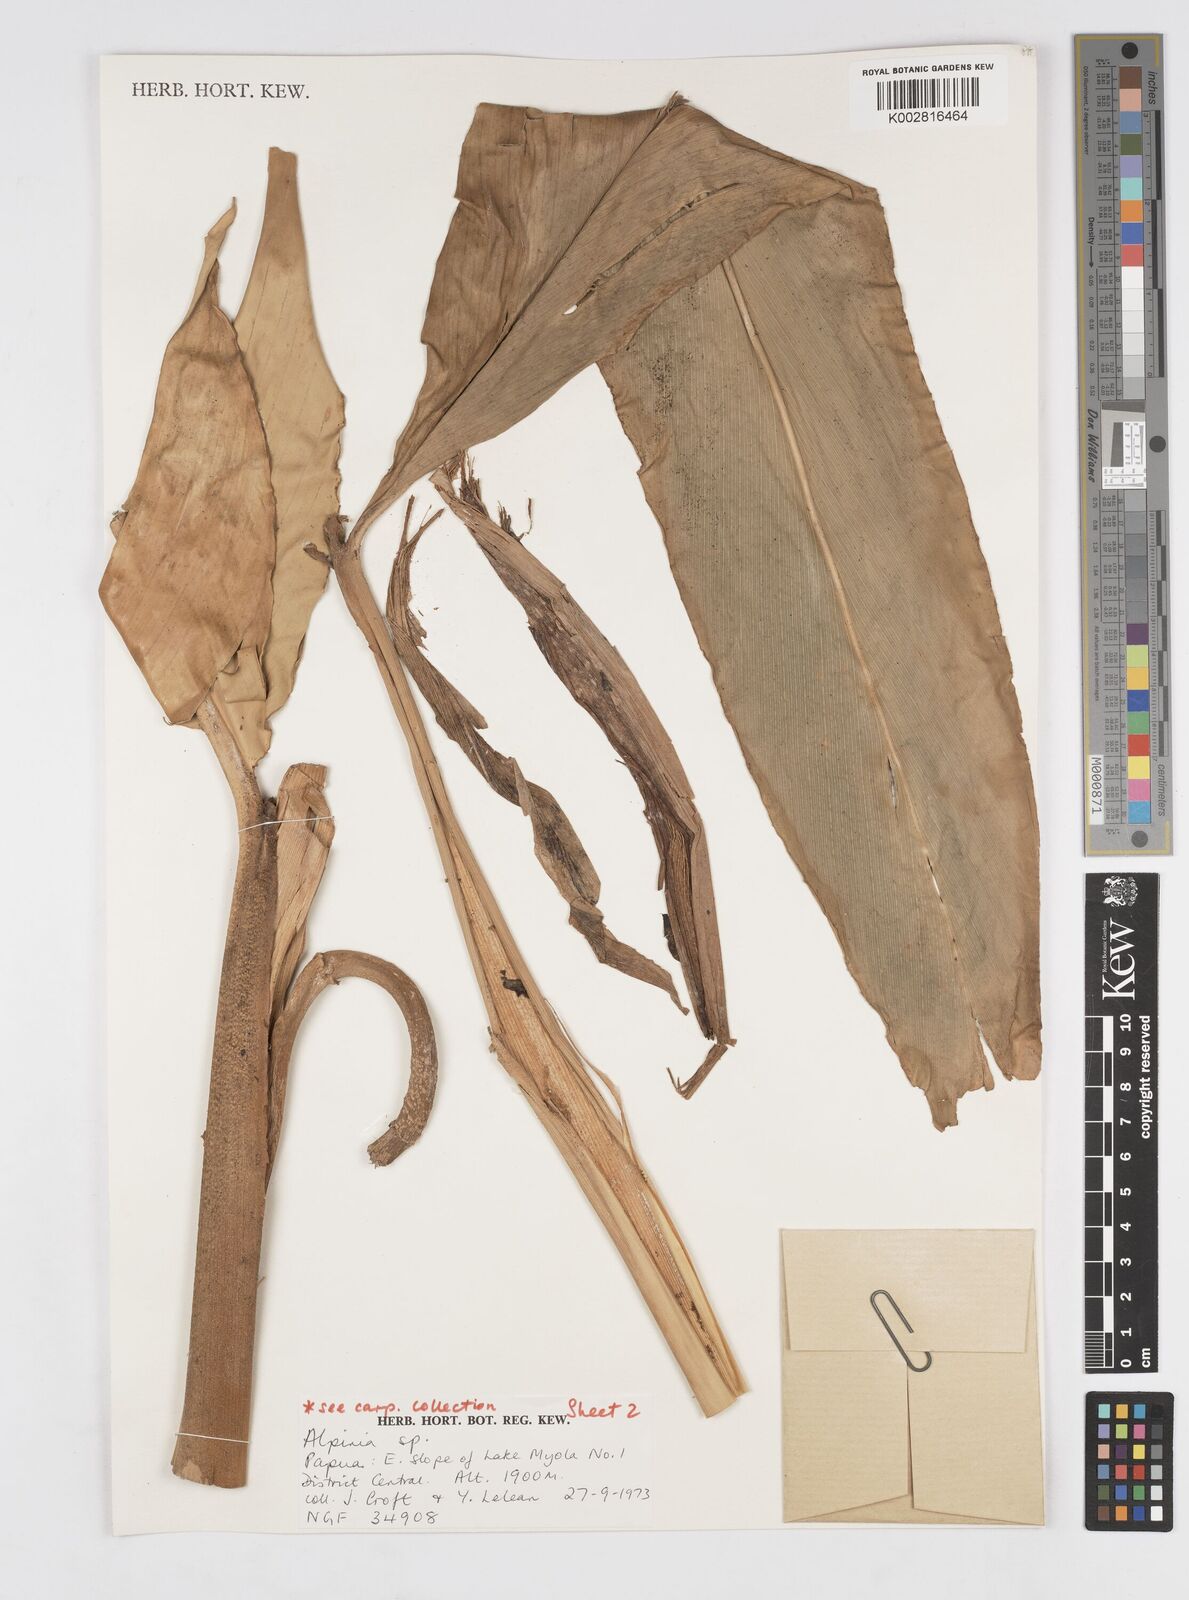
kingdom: Plantae
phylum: Tracheophyta
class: Liliopsida
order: Zingiberales
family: Zingiberaceae
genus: Alpinia
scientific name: Alpinia
